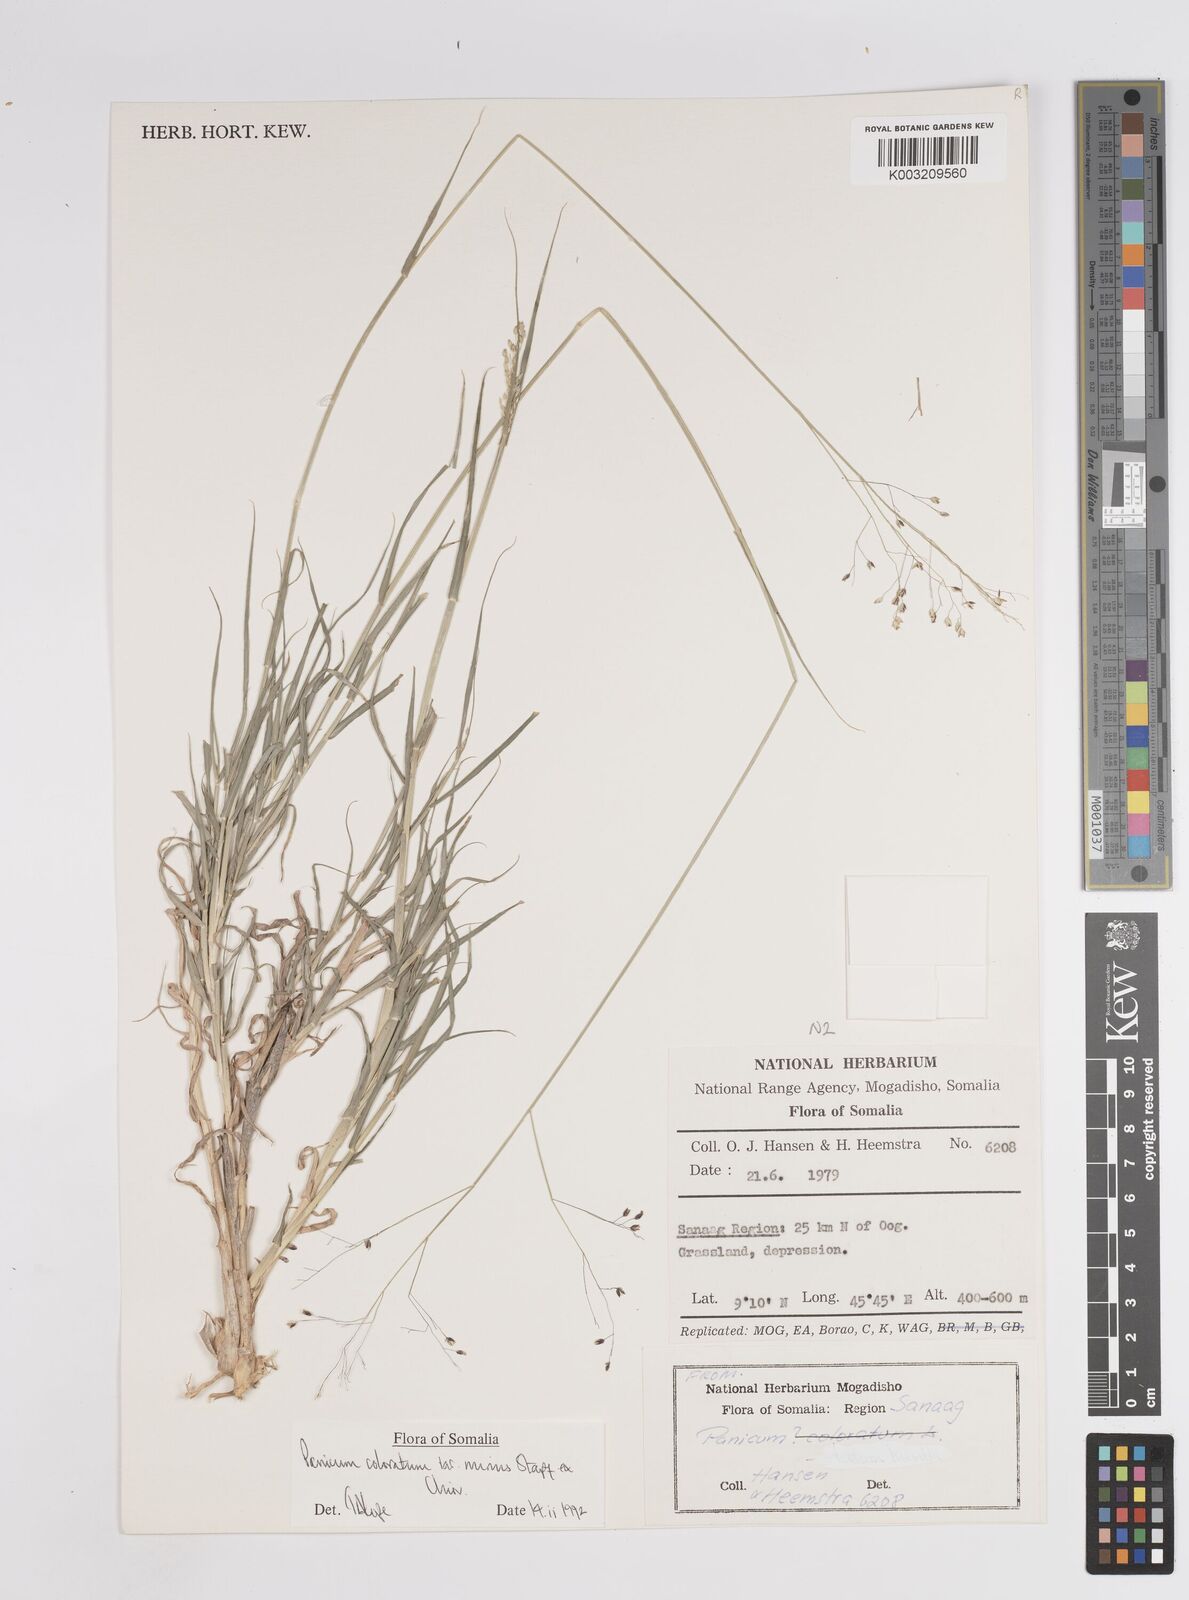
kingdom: Plantae
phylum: Tracheophyta
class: Liliopsida
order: Poales
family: Poaceae
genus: Panicum
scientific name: Panicum coloratum
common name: Kleingrass
